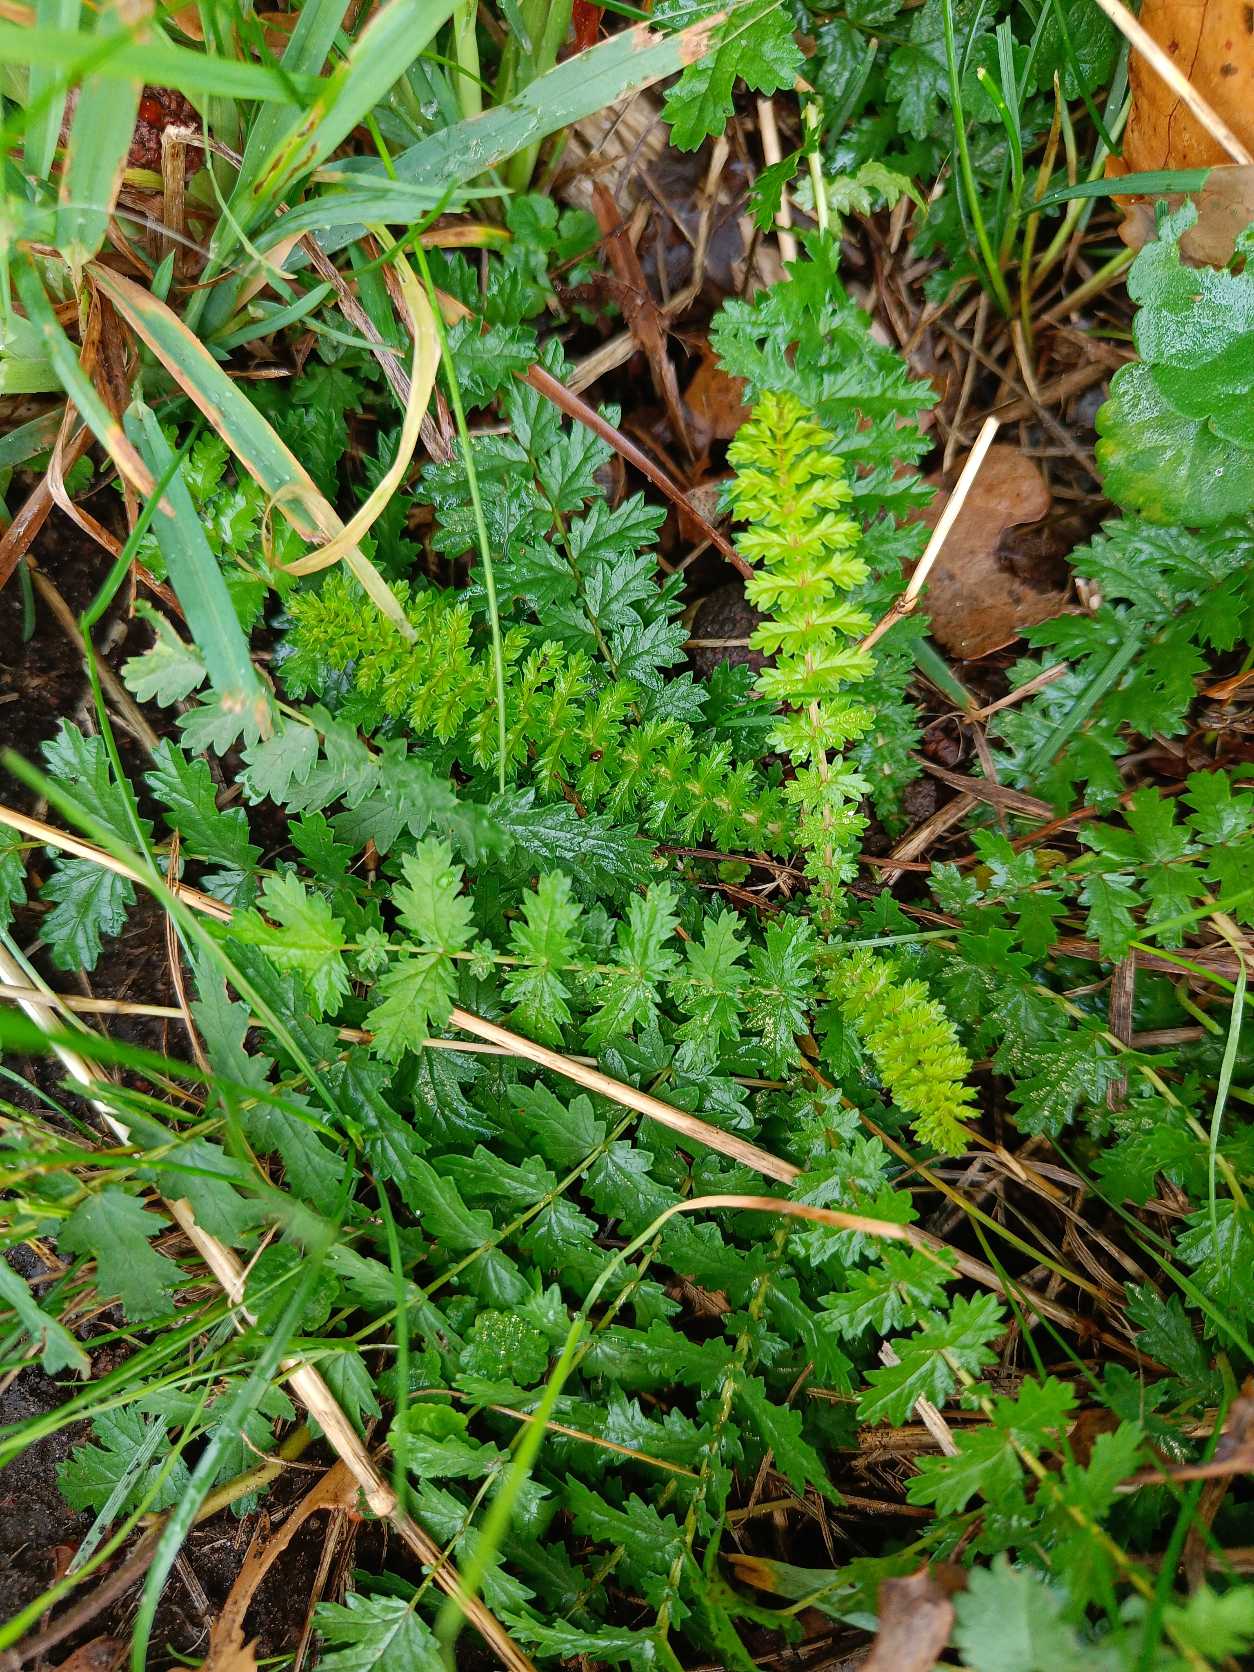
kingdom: Plantae
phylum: Tracheophyta
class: Magnoliopsida
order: Rosales
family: Rosaceae
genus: Filipendula
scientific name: Filipendula vulgaris
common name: Knoldet mjødurt
